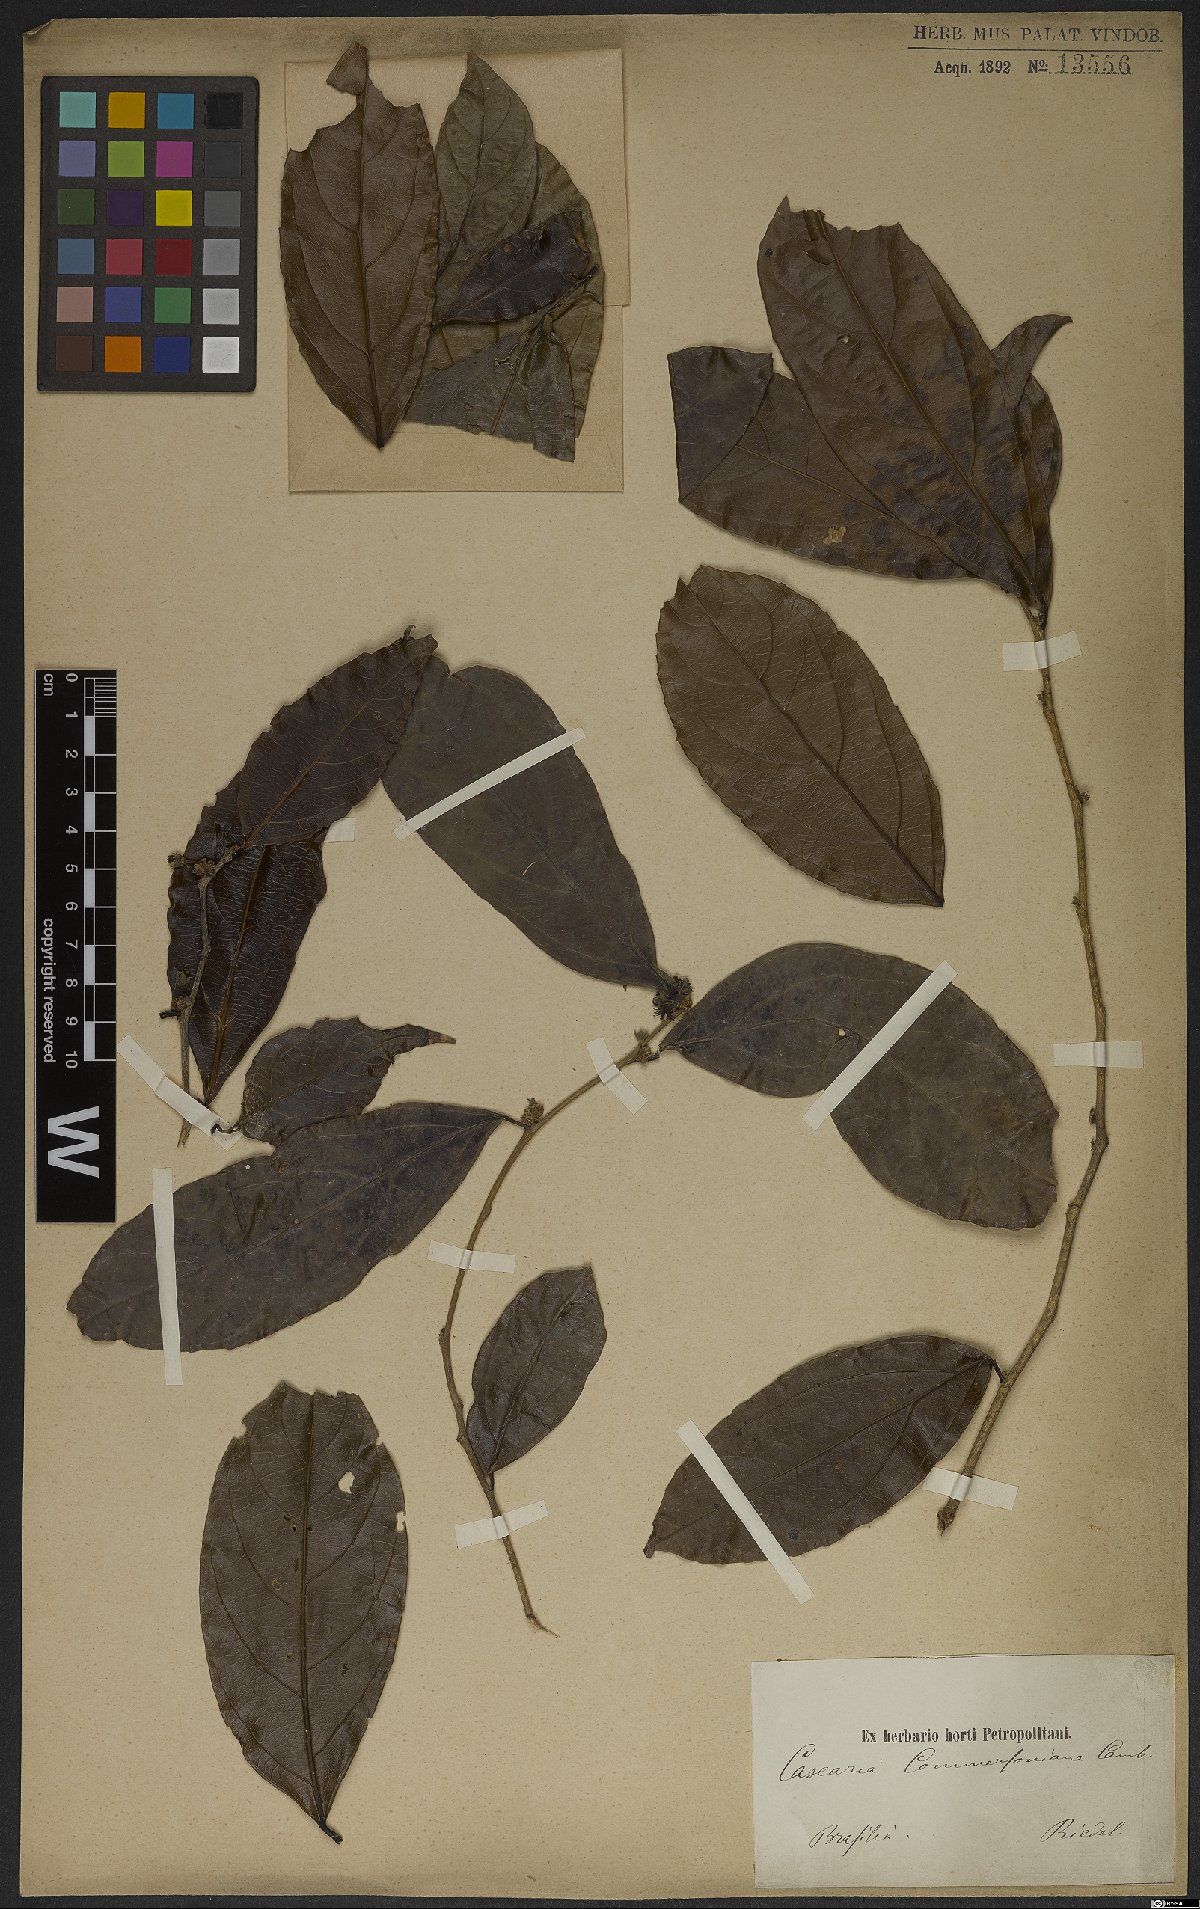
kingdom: Plantae
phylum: Tracheophyta
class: Magnoliopsida
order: Malpighiales
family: Salicaceae
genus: Piparea
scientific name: Piparea dentata
